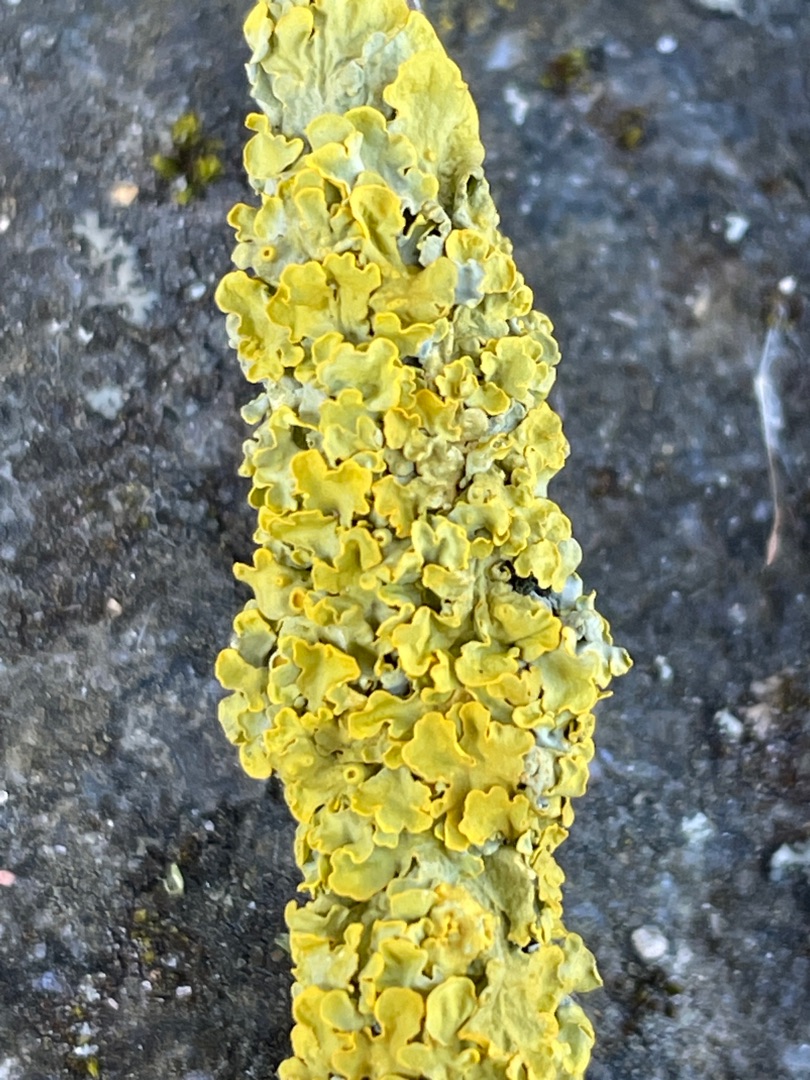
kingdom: Fungi
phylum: Ascomycota
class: Lecanoromycetes
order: Teloschistales
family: Teloschistaceae
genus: Xanthoria
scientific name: Xanthoria parietina
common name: Almindelig væggelav
